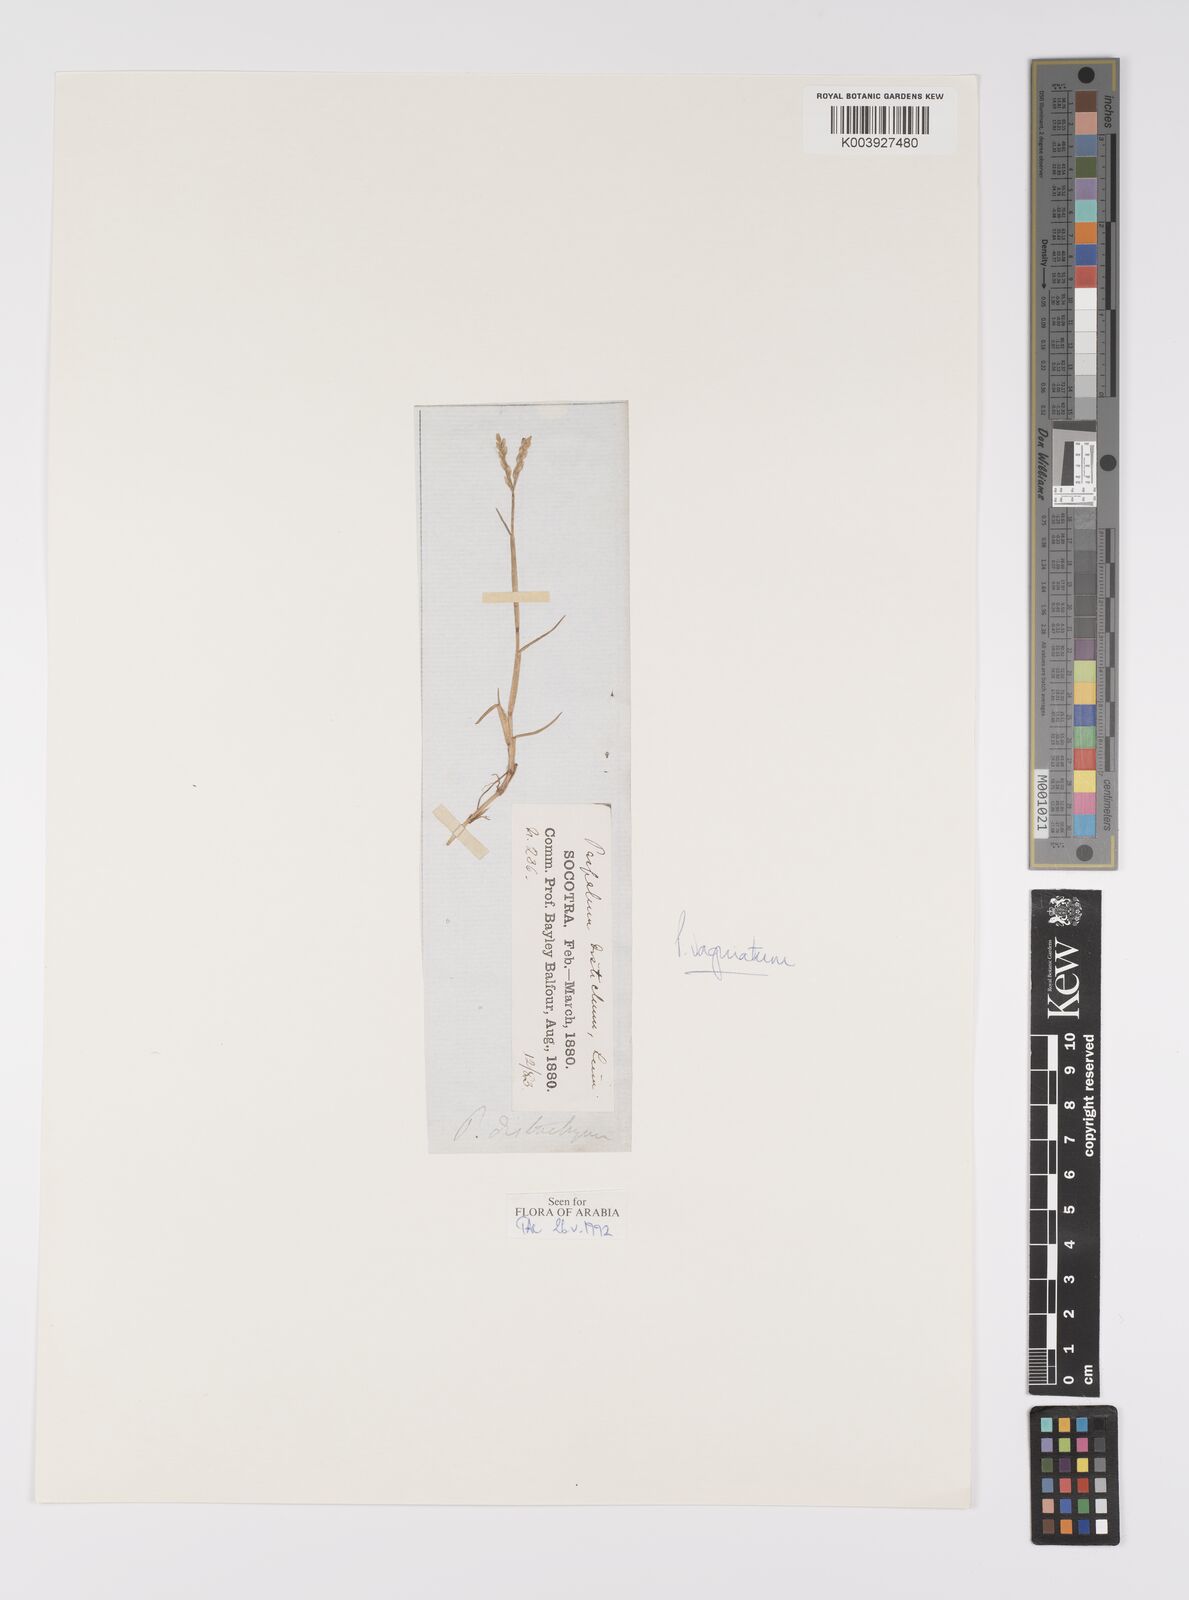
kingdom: Plantae
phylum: Tracheophyta
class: Liliopsida
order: Poales
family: Poaceae
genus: Paspalum
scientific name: Paspalum vaginatum
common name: Seashore paspalum
